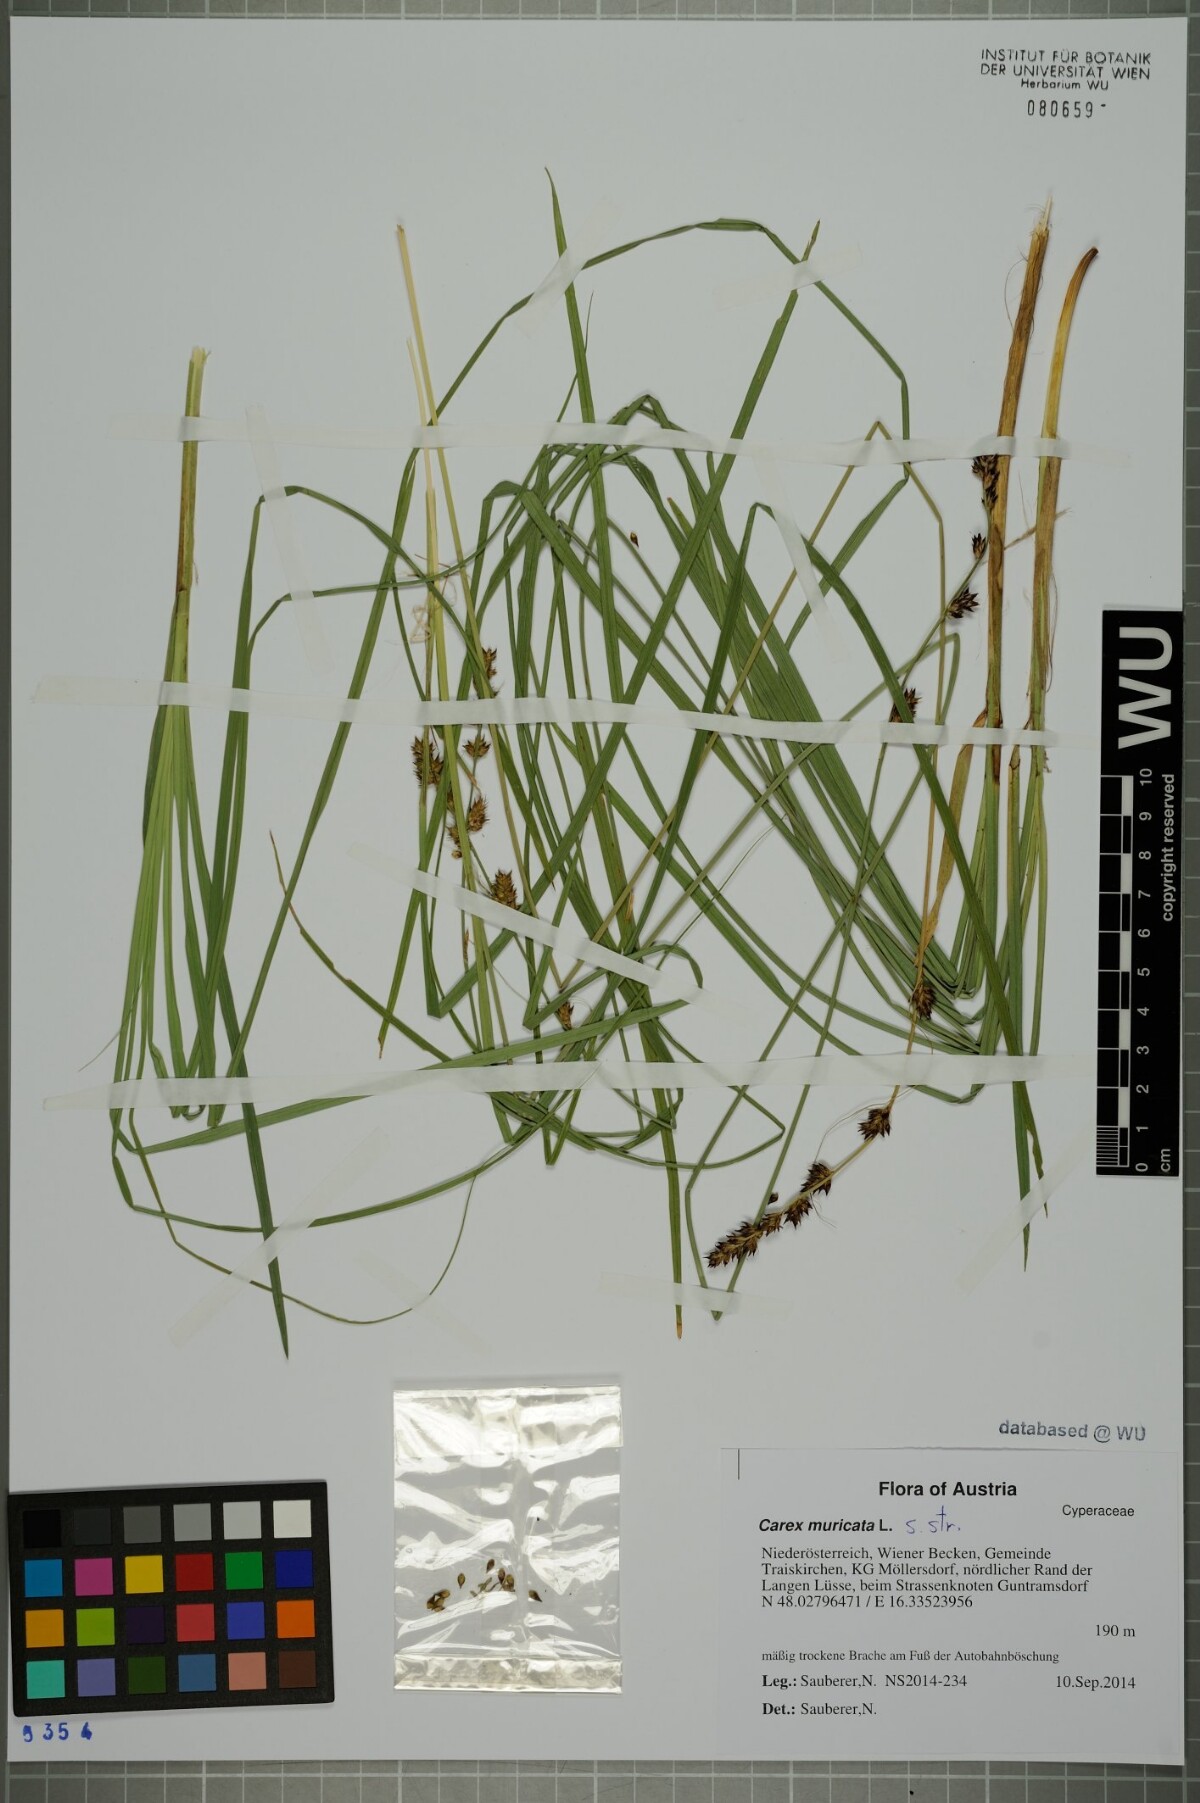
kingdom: Plantae
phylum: Tracheophyta
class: Liliopsida
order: Poales
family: Cyperaceae
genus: Carex
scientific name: Carex muricata
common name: Rough sedge
